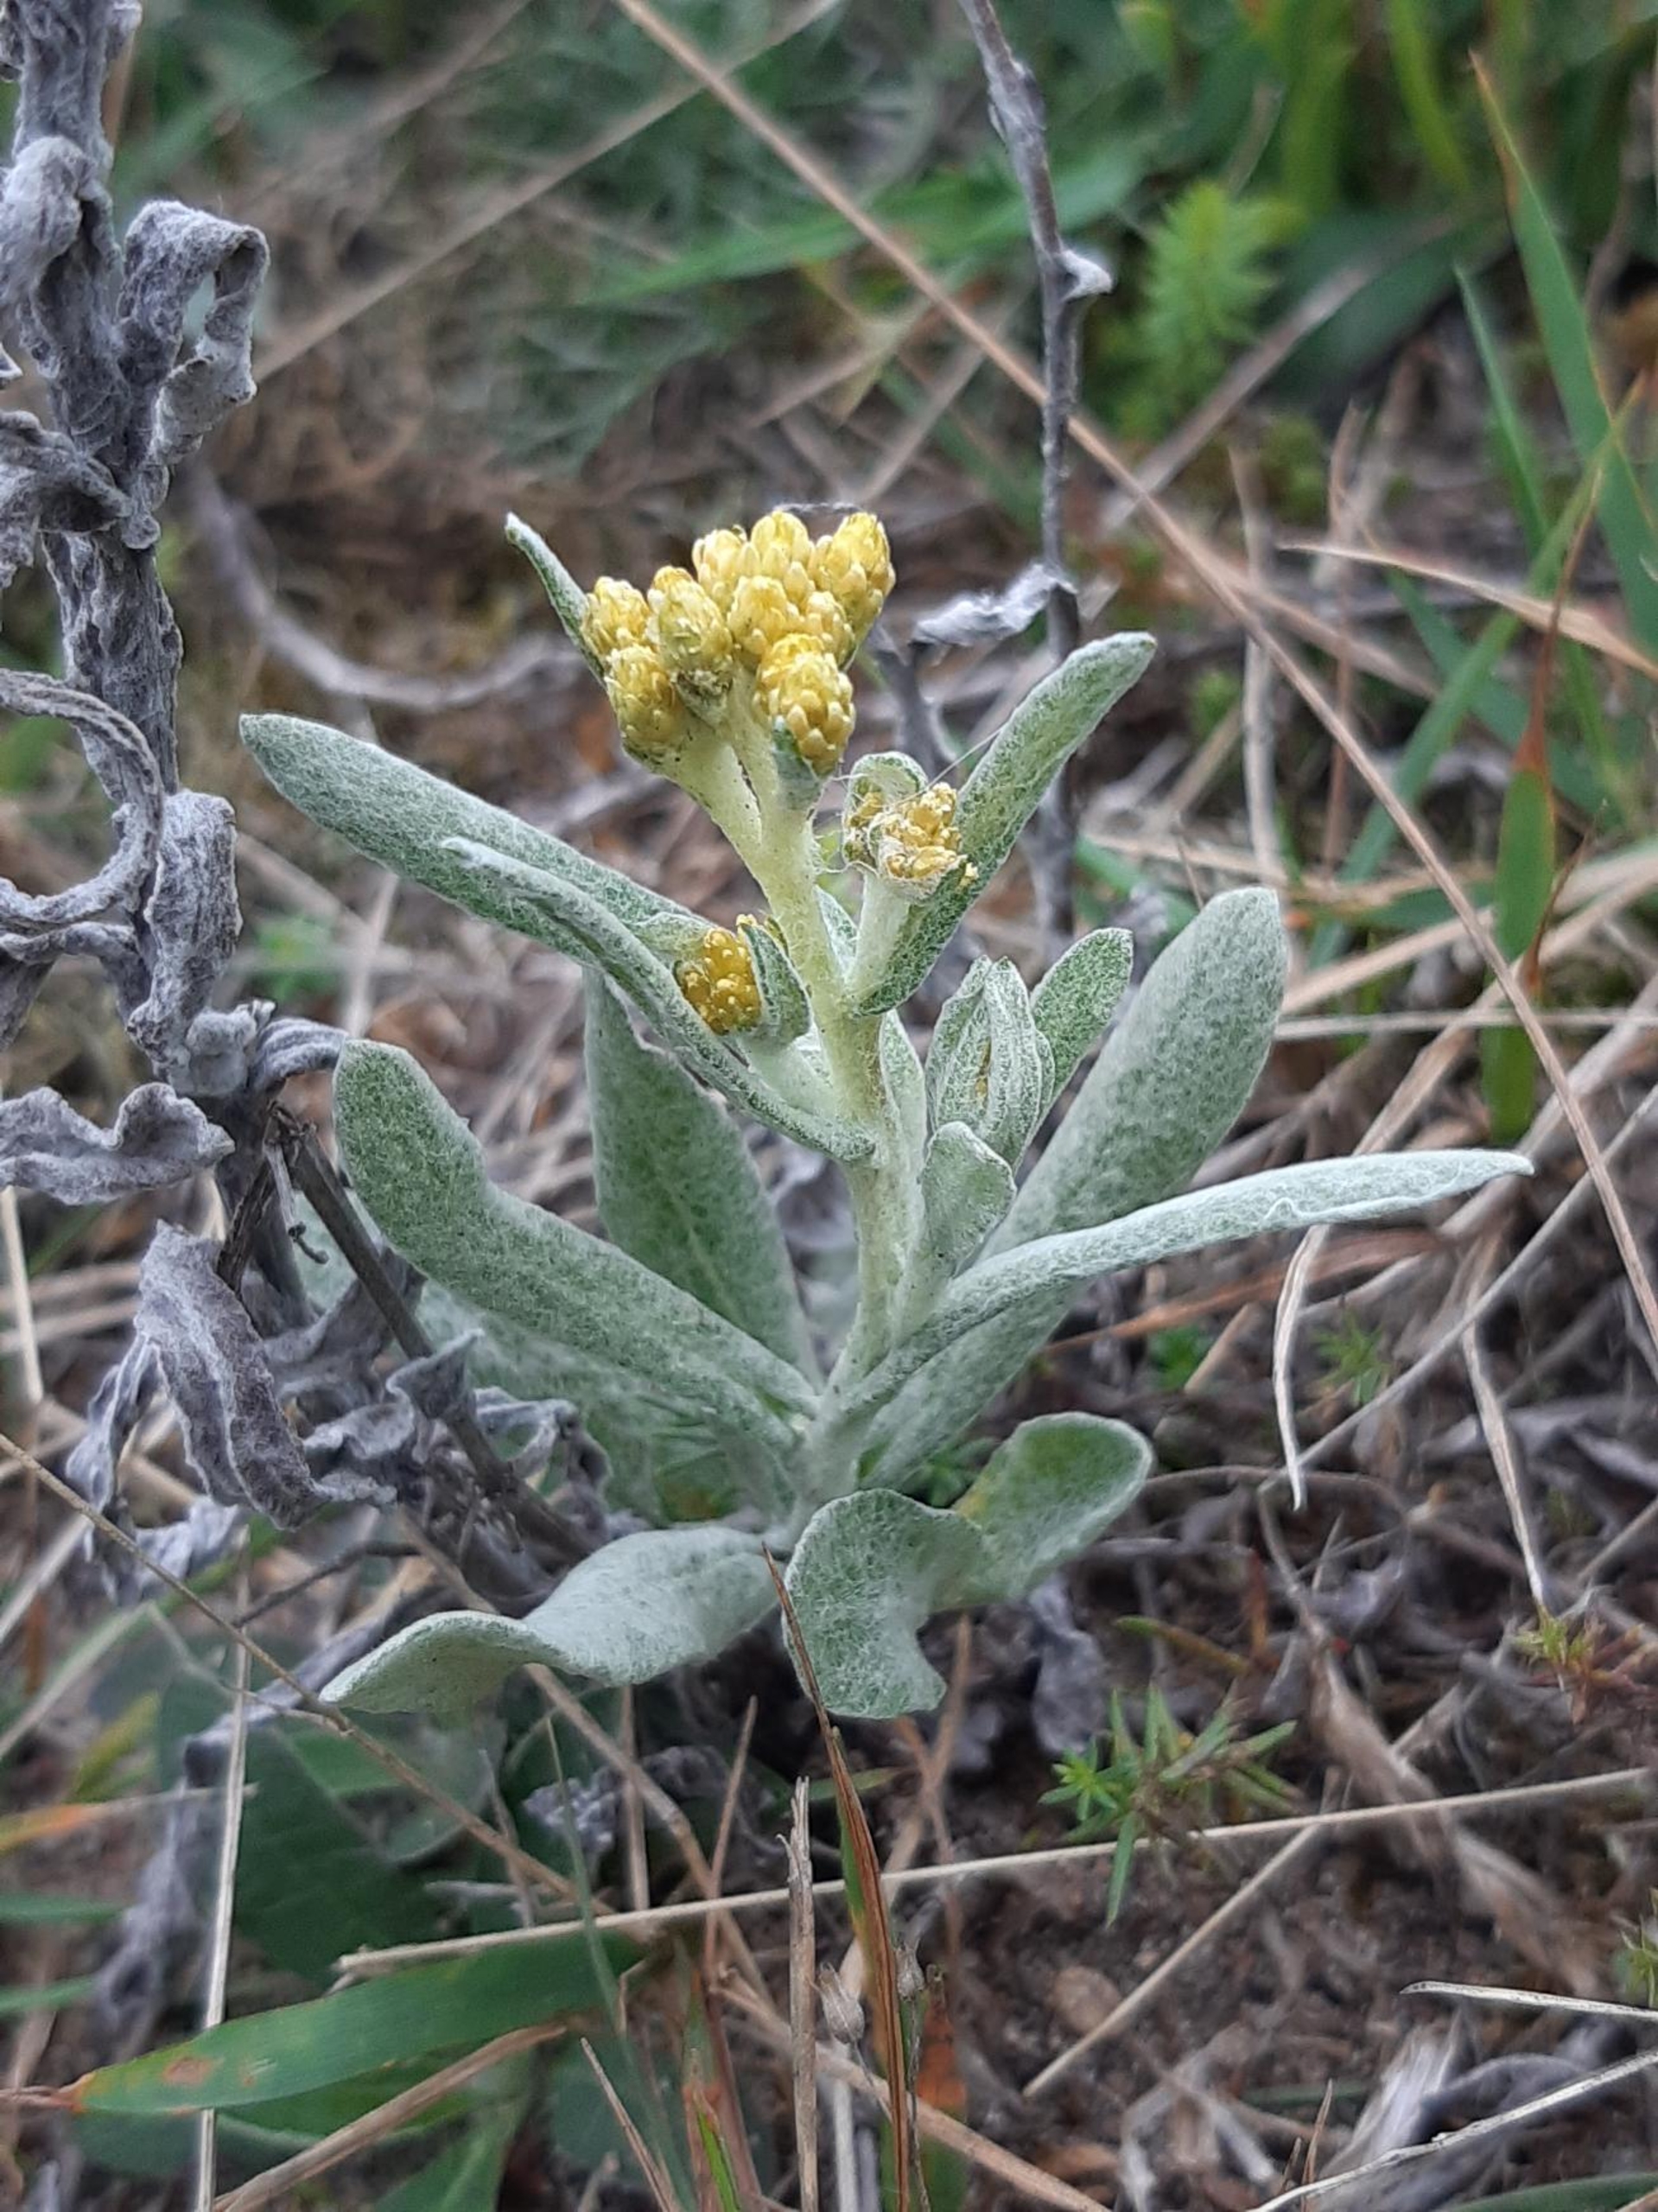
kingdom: Plantae
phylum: Tracheophyta
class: Magnoliopsida
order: Asterales
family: Asteraceae
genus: Helichrysum
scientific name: Helichrysum arenarium
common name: Gul evighedsblomst
